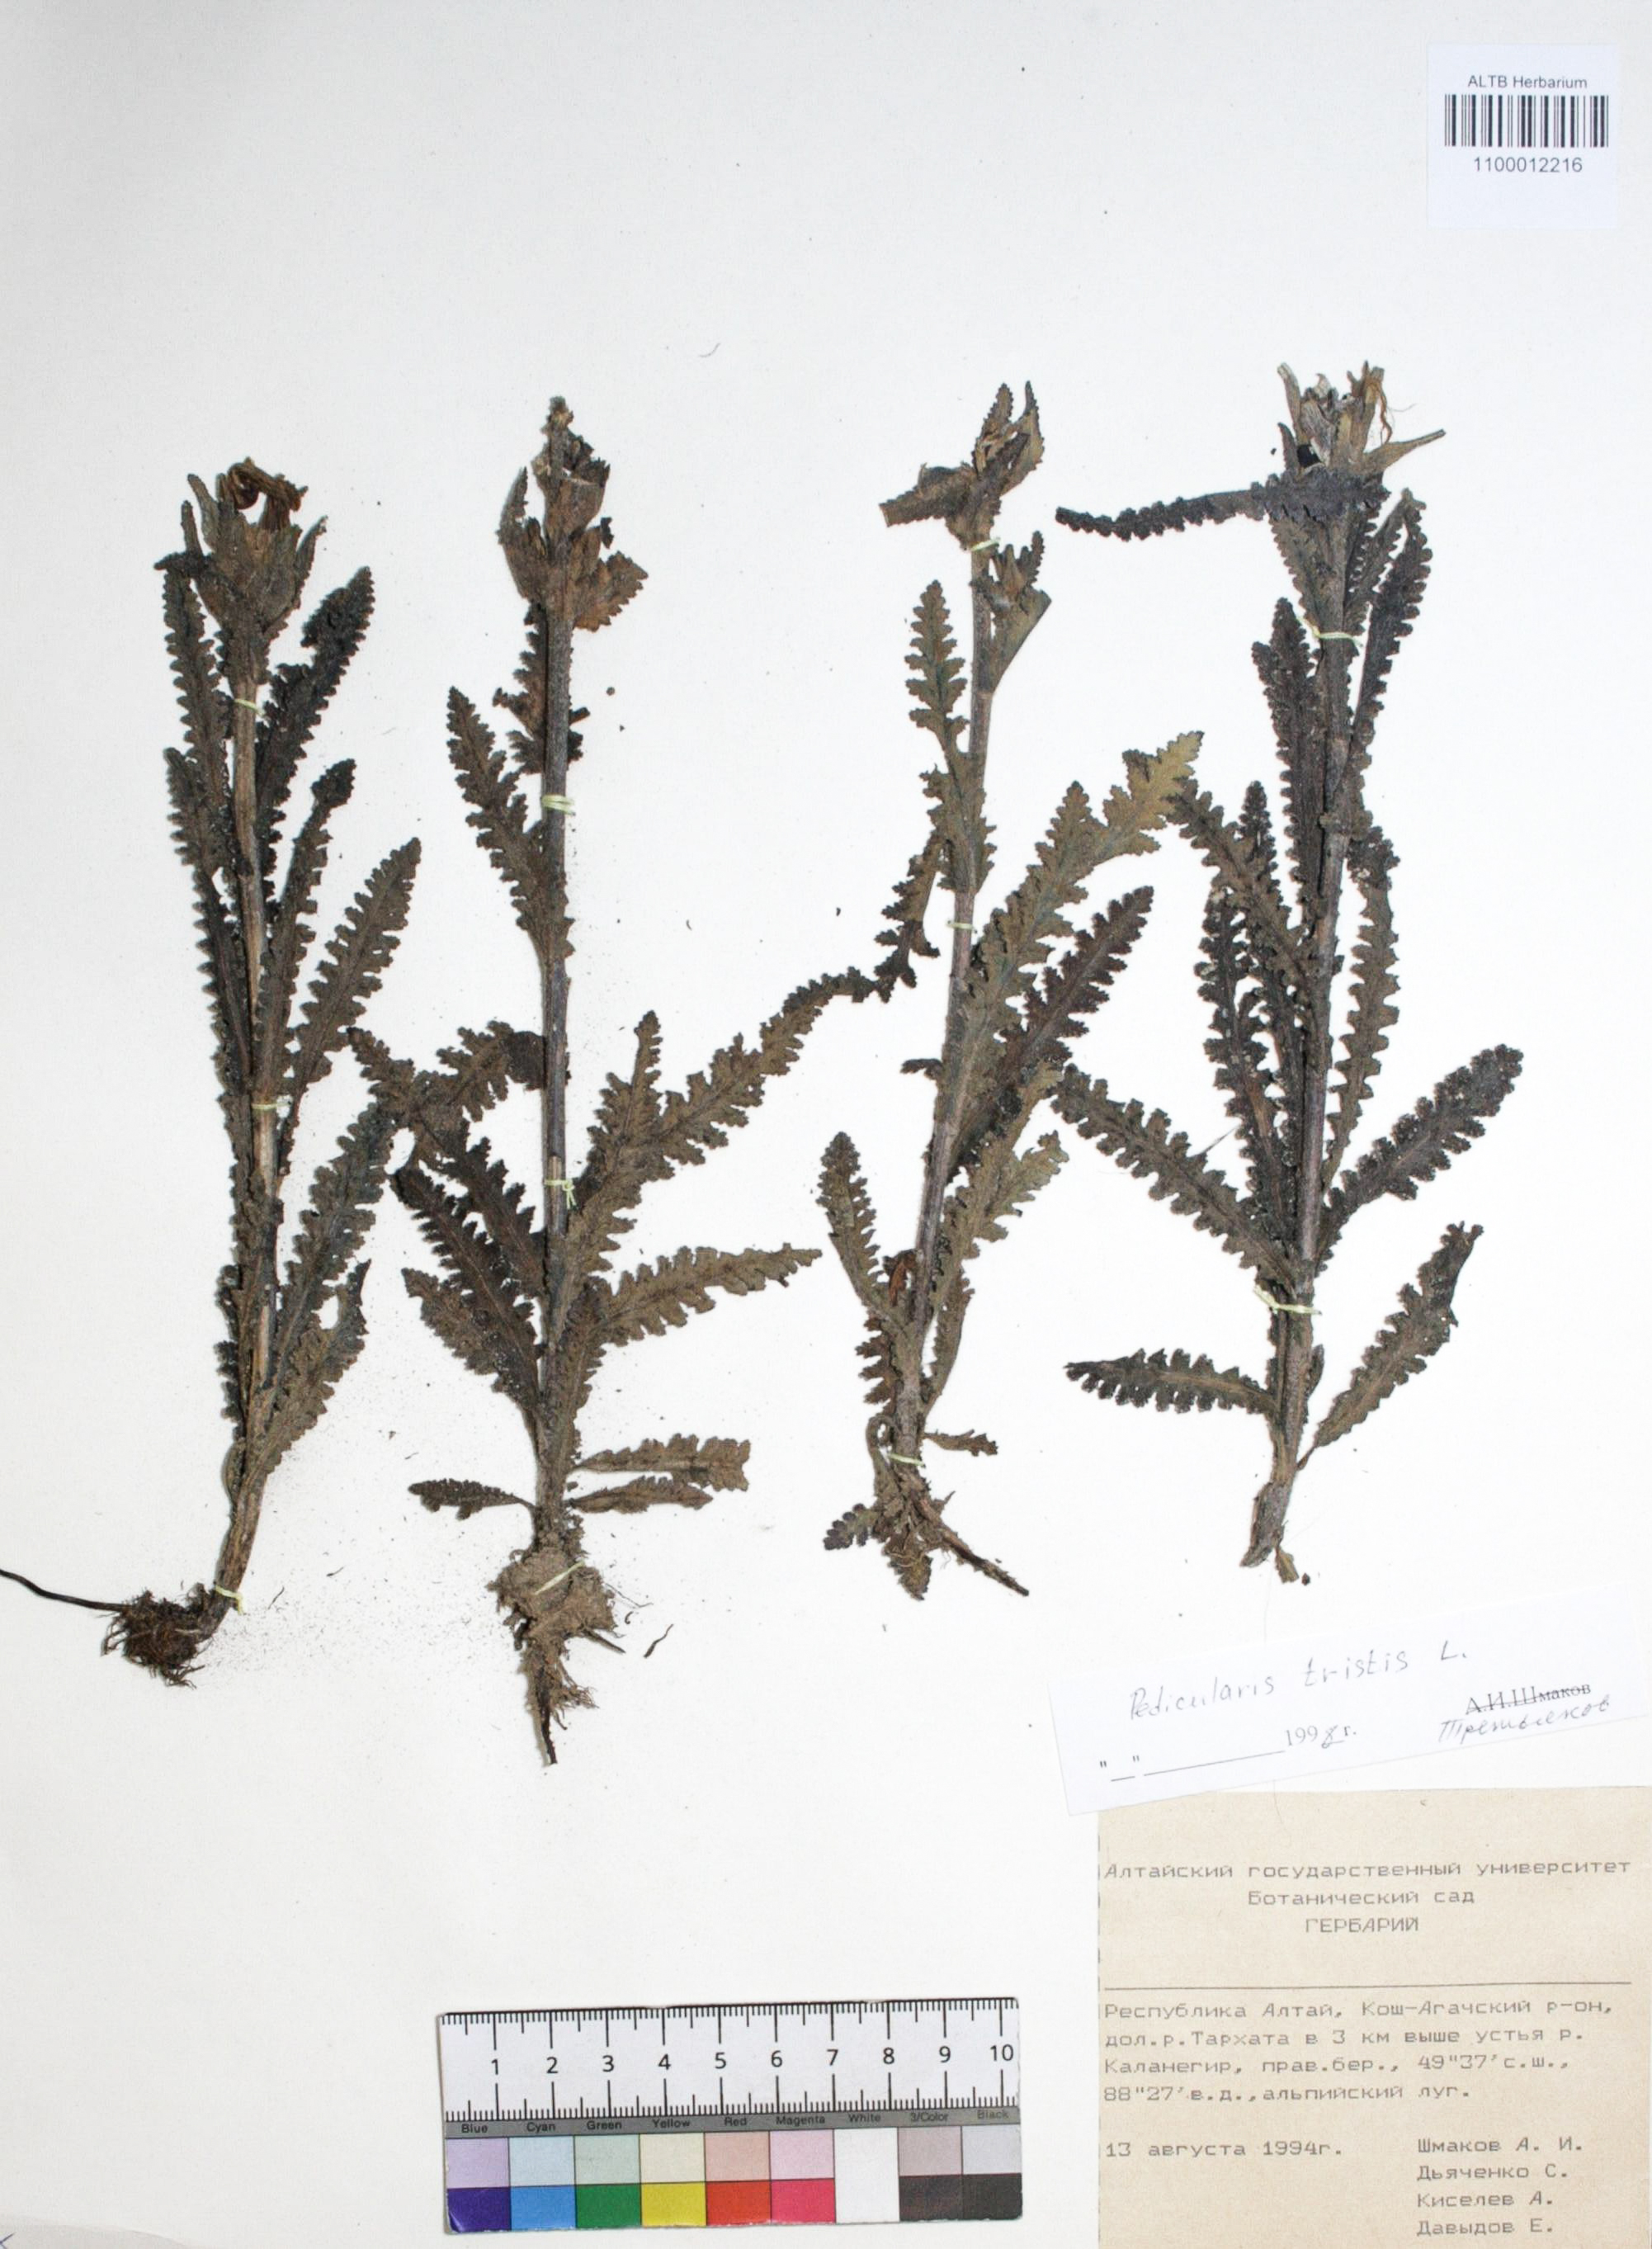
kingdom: Plantae
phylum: Tracheophyta
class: Magnoliopsida
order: Lamiales
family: Orobanchaceae
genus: Pedicularis
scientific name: Pedicularis tristis
